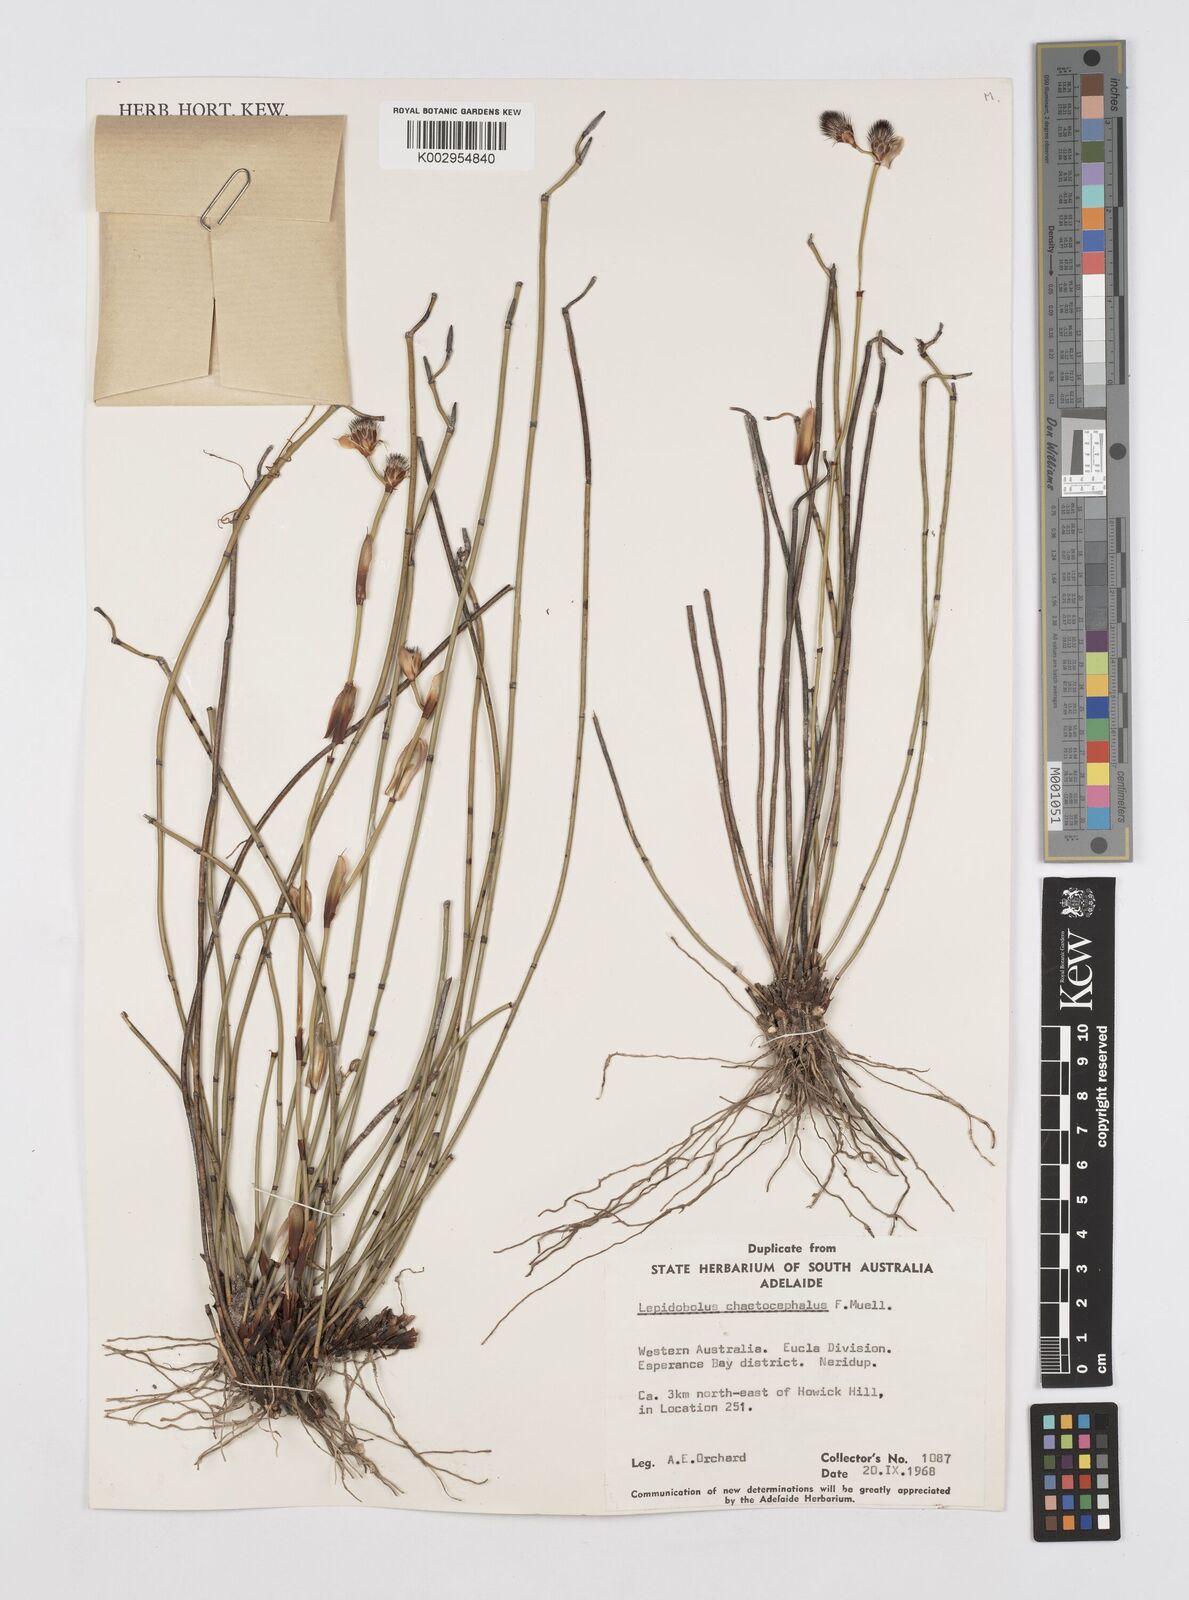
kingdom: Plantae
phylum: Tracheophyta
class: Liliopsida
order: Poales
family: Restionaceae
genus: Lepidobolus
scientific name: Lepidobolus chaetocephalus
